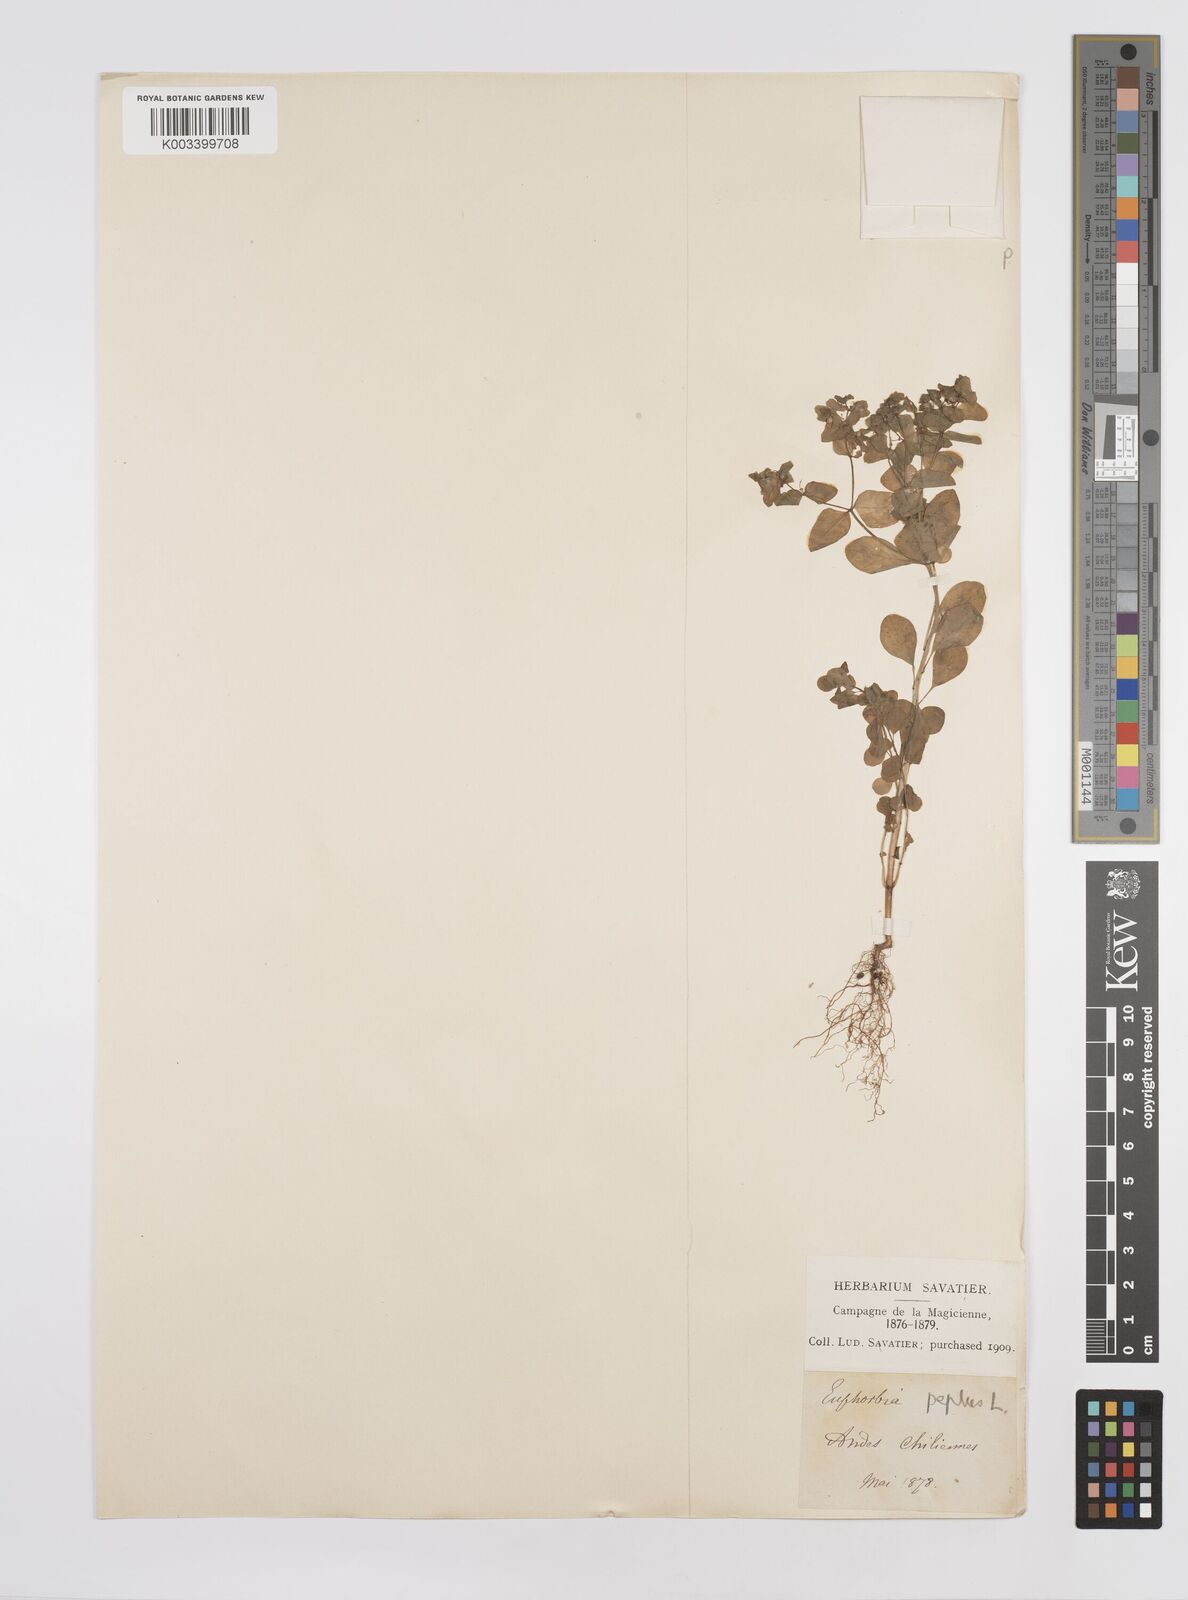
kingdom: Plantae
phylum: Tracheophyta
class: Magnoliopsida
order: Malpighiales
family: Euphorbiaceae
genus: Euphorbia
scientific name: Euphorbia peplus
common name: Petty spurge
